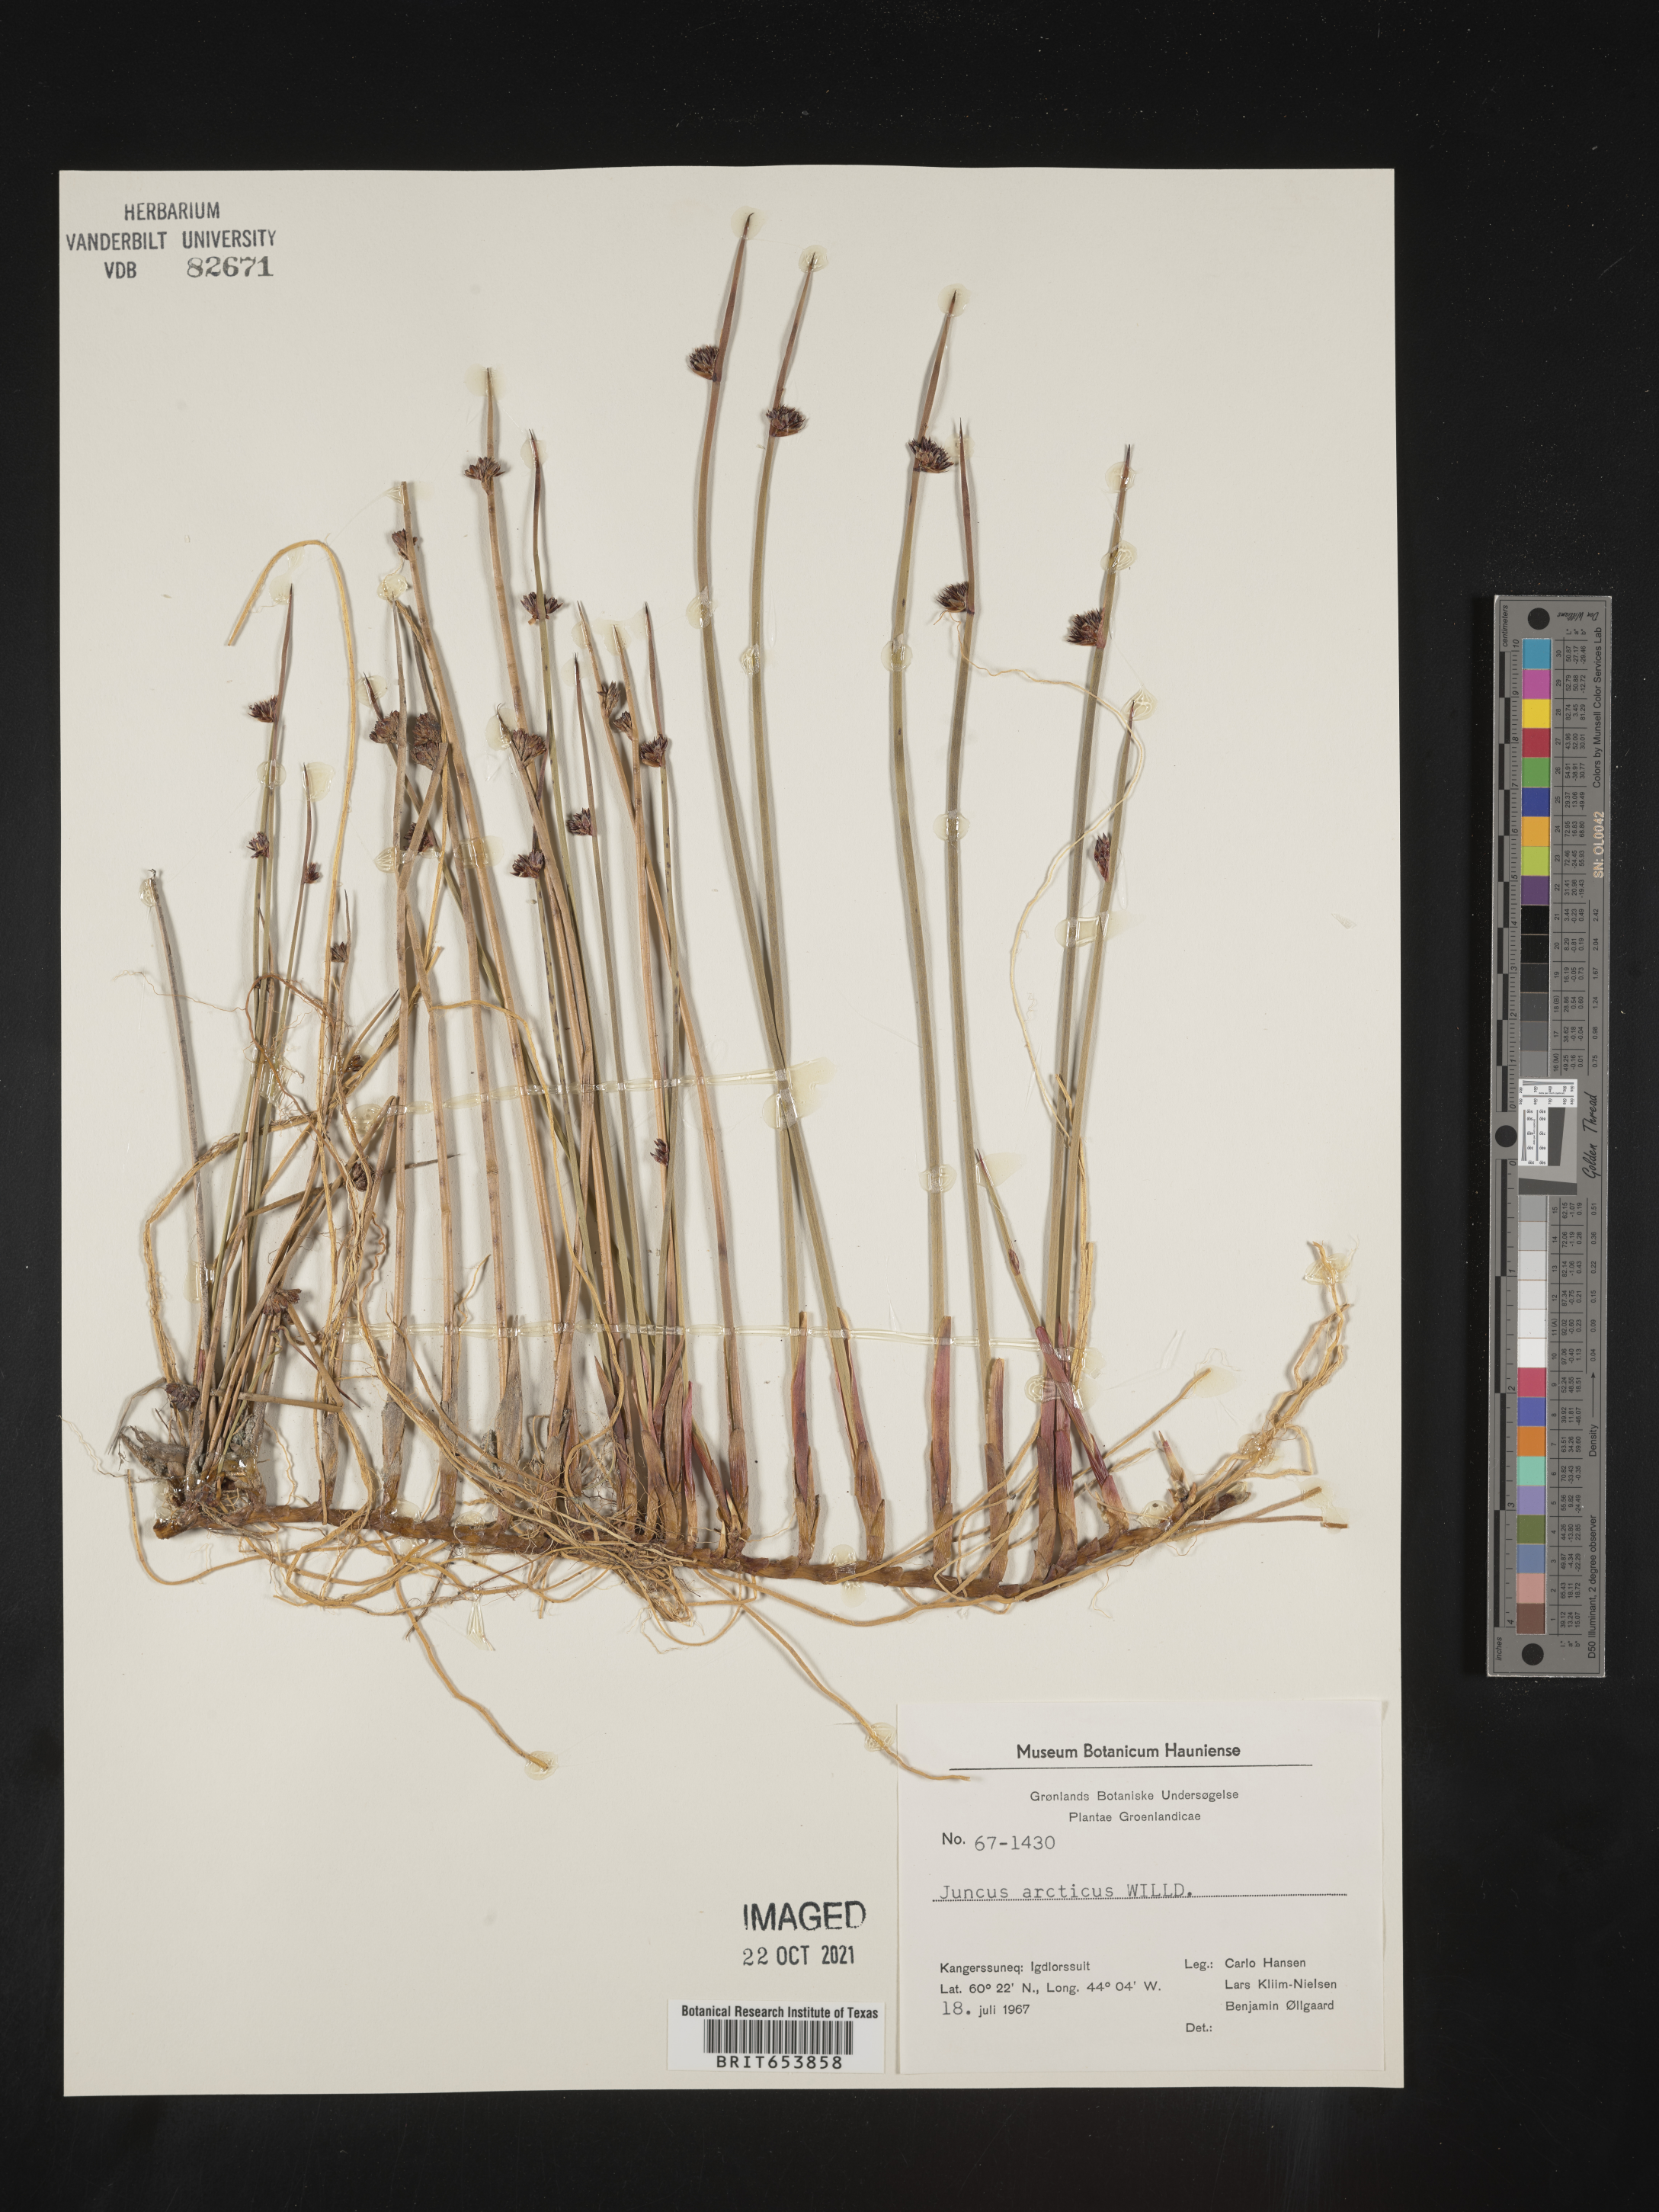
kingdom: Plantae
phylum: Tracheophyta
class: Liliopsida
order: Poales
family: Juncaceae
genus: Juncus
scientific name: Juncus arcticus
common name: Arctic rush
